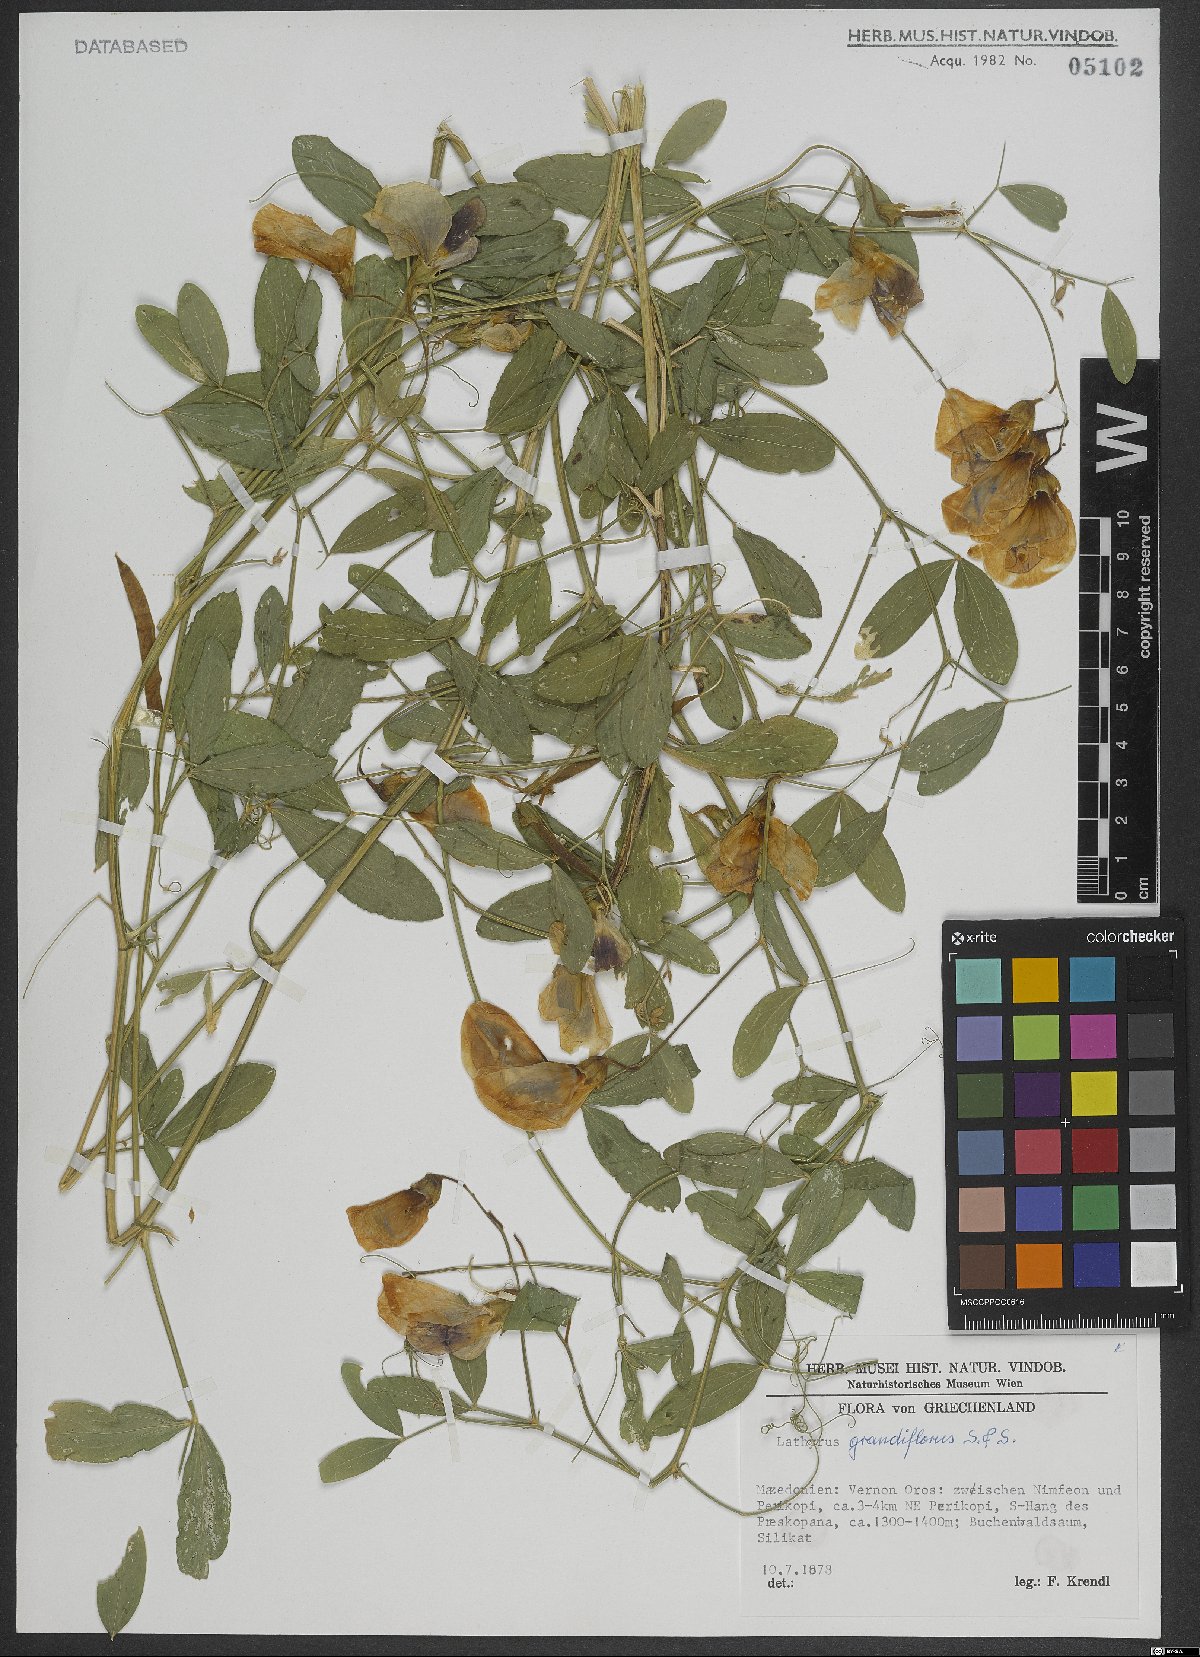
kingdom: Plantae
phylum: Tracheophyta
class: Magnoliopsida
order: Fabales
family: Fabaceae
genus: Lathyrus
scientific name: Lathyrus grandiflorus
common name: Two-flowered everlasting-pea
